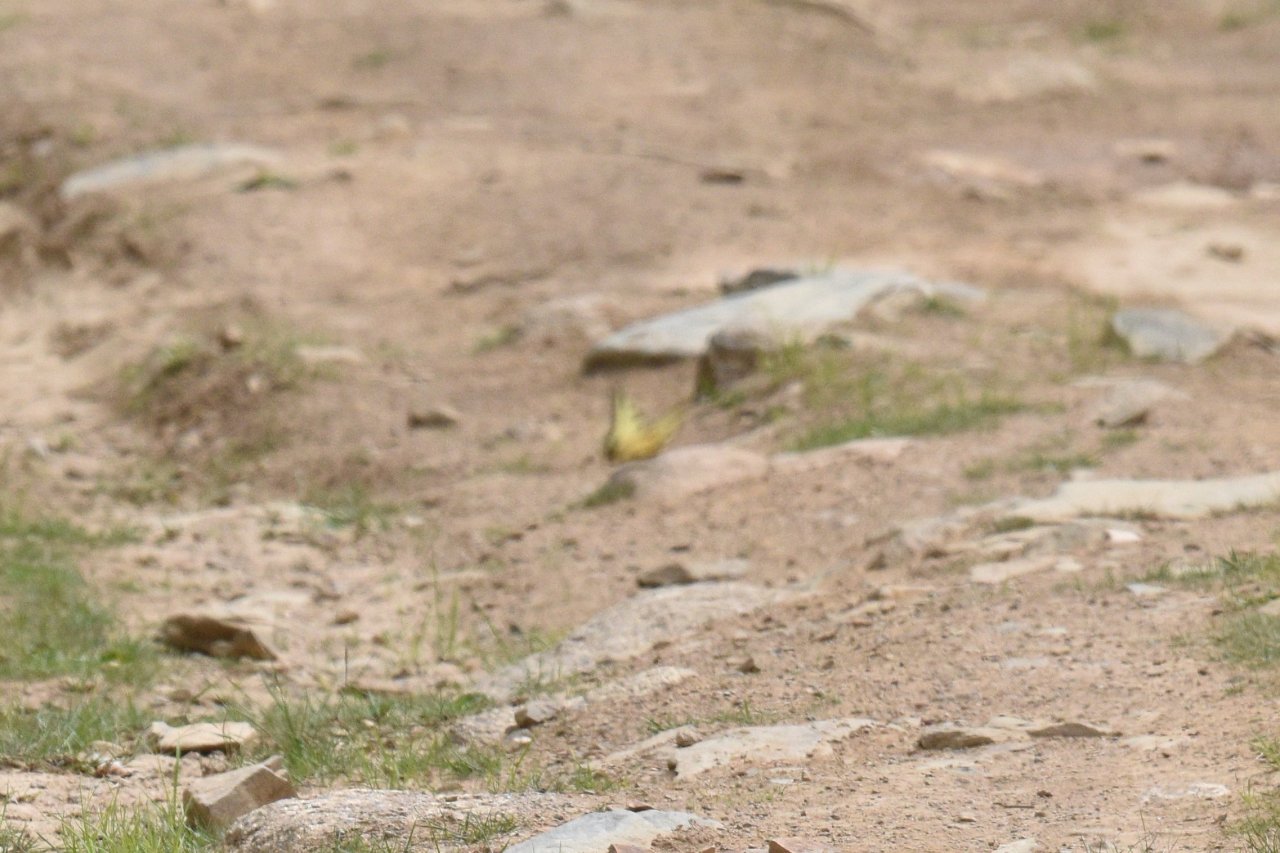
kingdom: Animalia
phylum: Arthropoda
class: Insecta
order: Lepidoptera
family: Papilionidae
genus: Pterourus
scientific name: Pterourus canadensis
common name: Canadian Tiger Swallowtail
